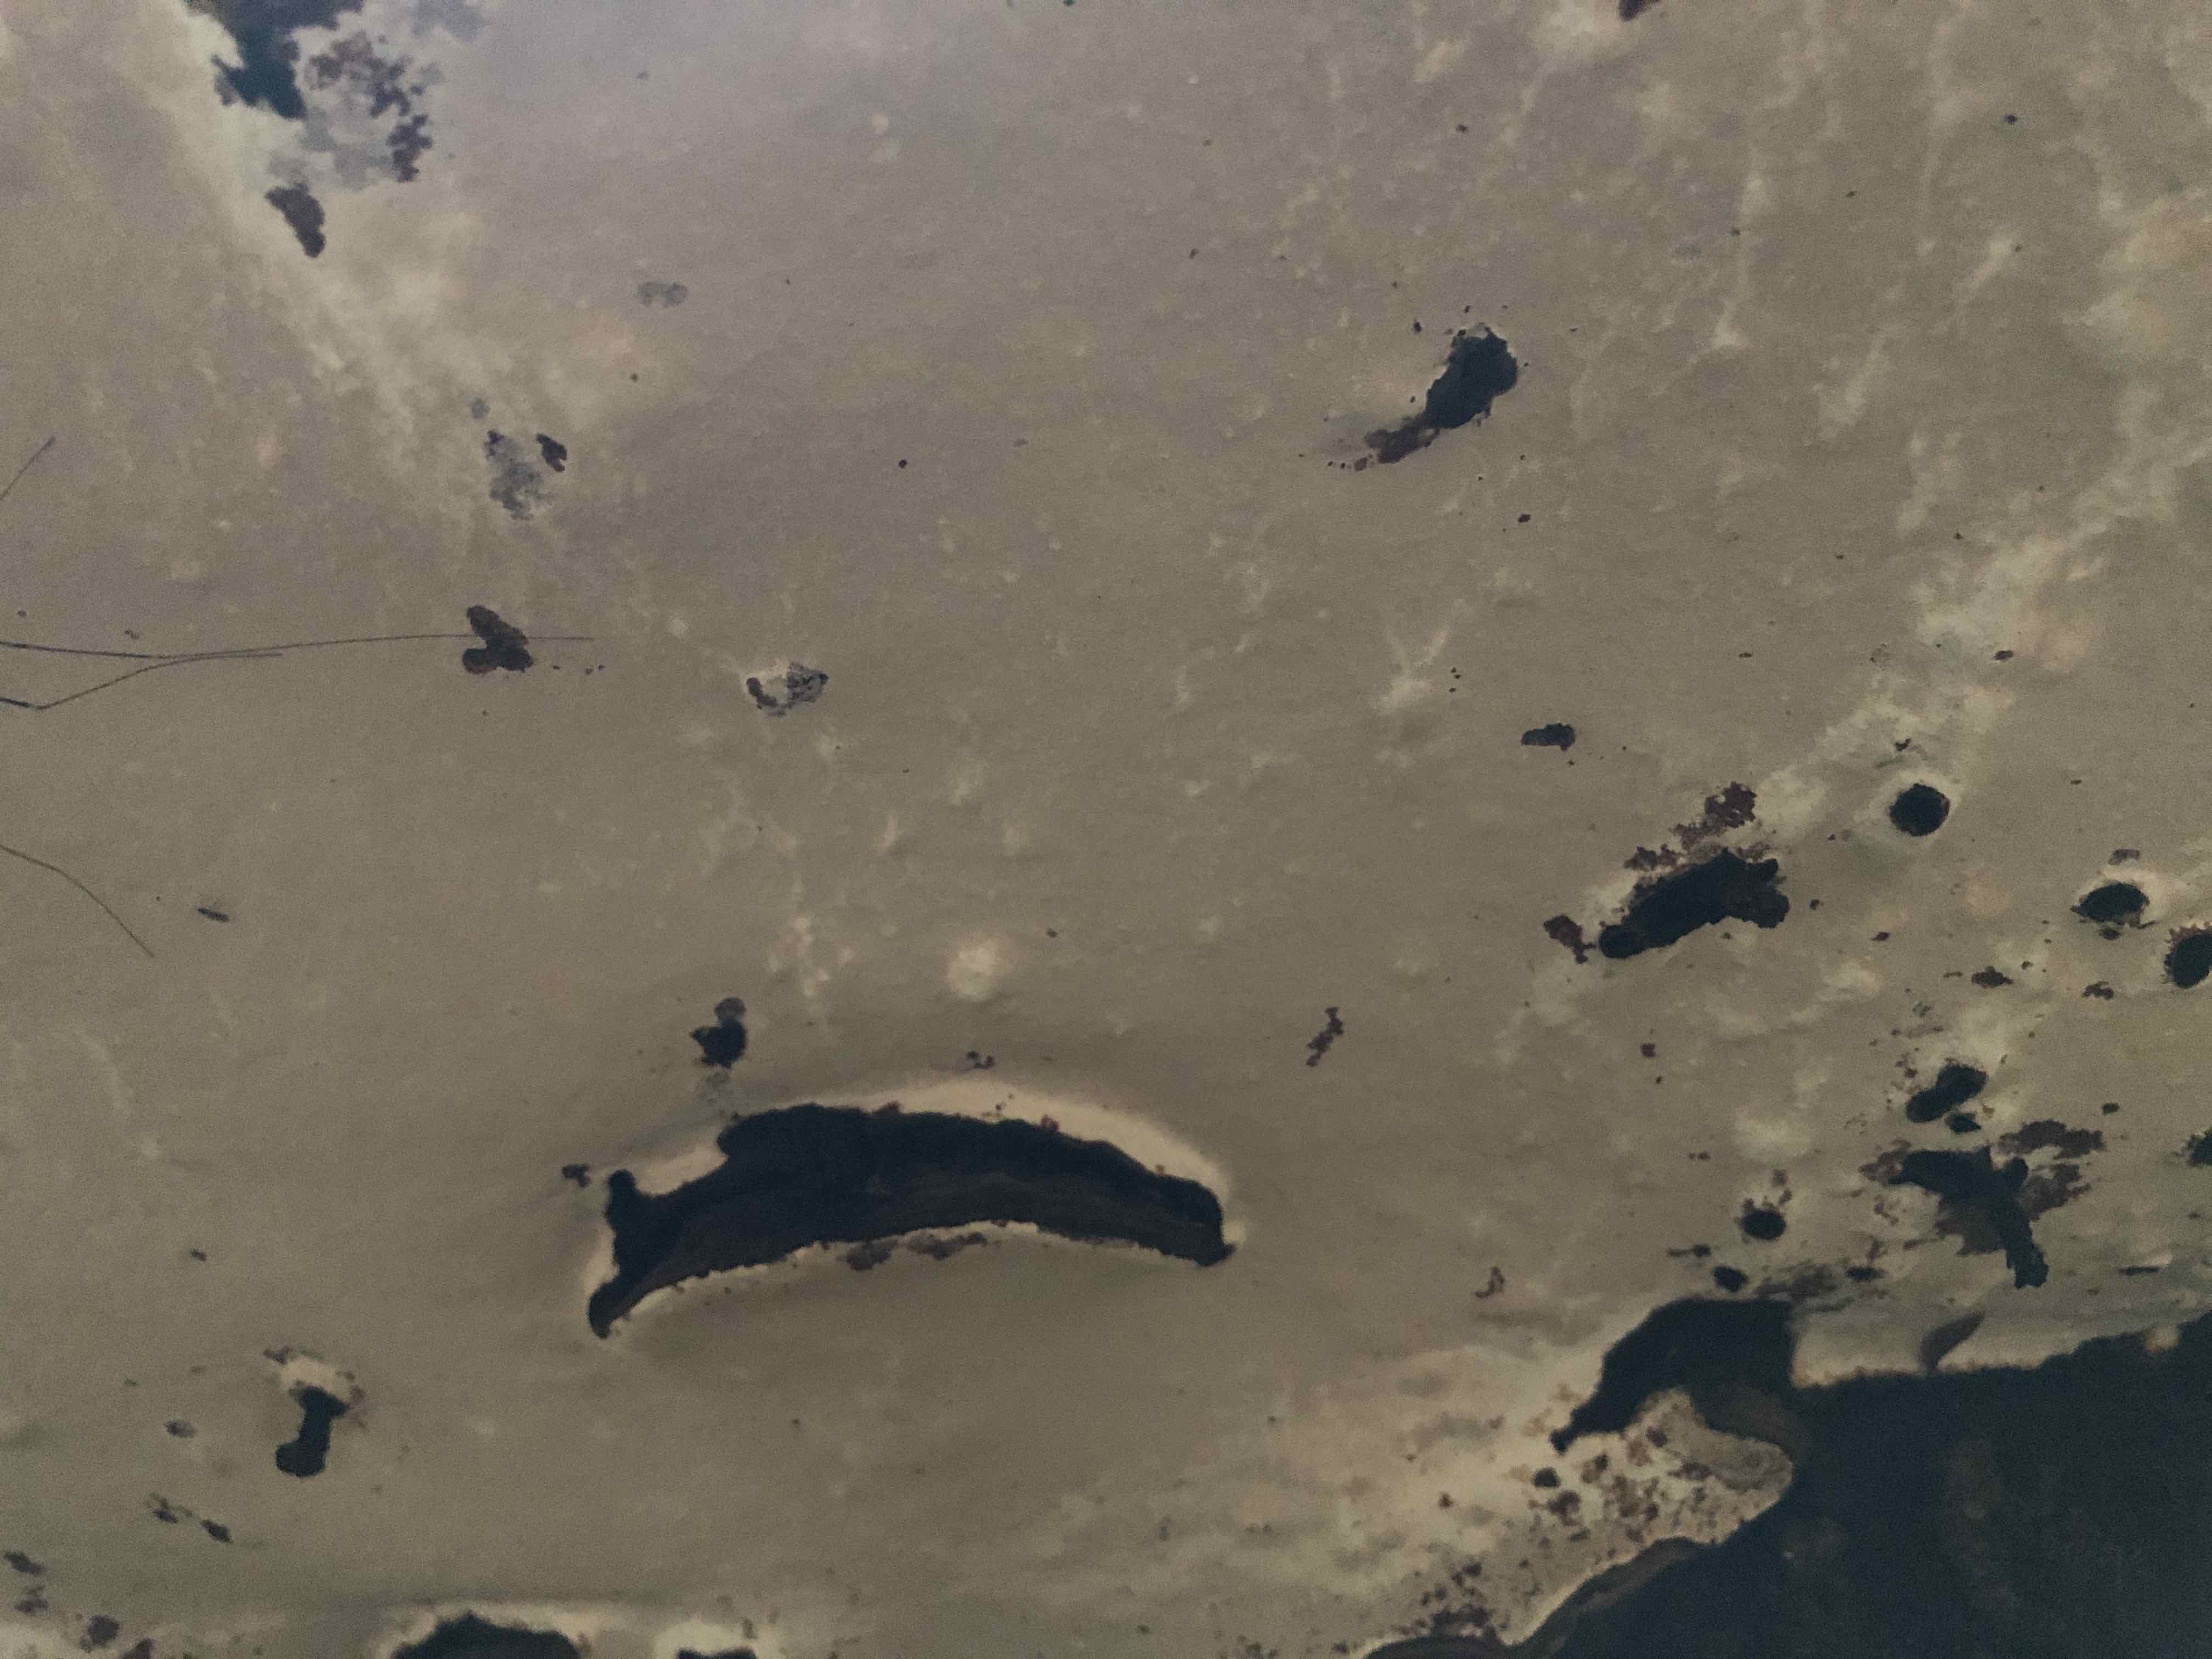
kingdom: Fungi
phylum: Basidiomycota
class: Agaricomycetes
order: Polyporales
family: Polyporaceae
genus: Ganoderma
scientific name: Ganoderma applanatum
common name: flad lakporesvamp
